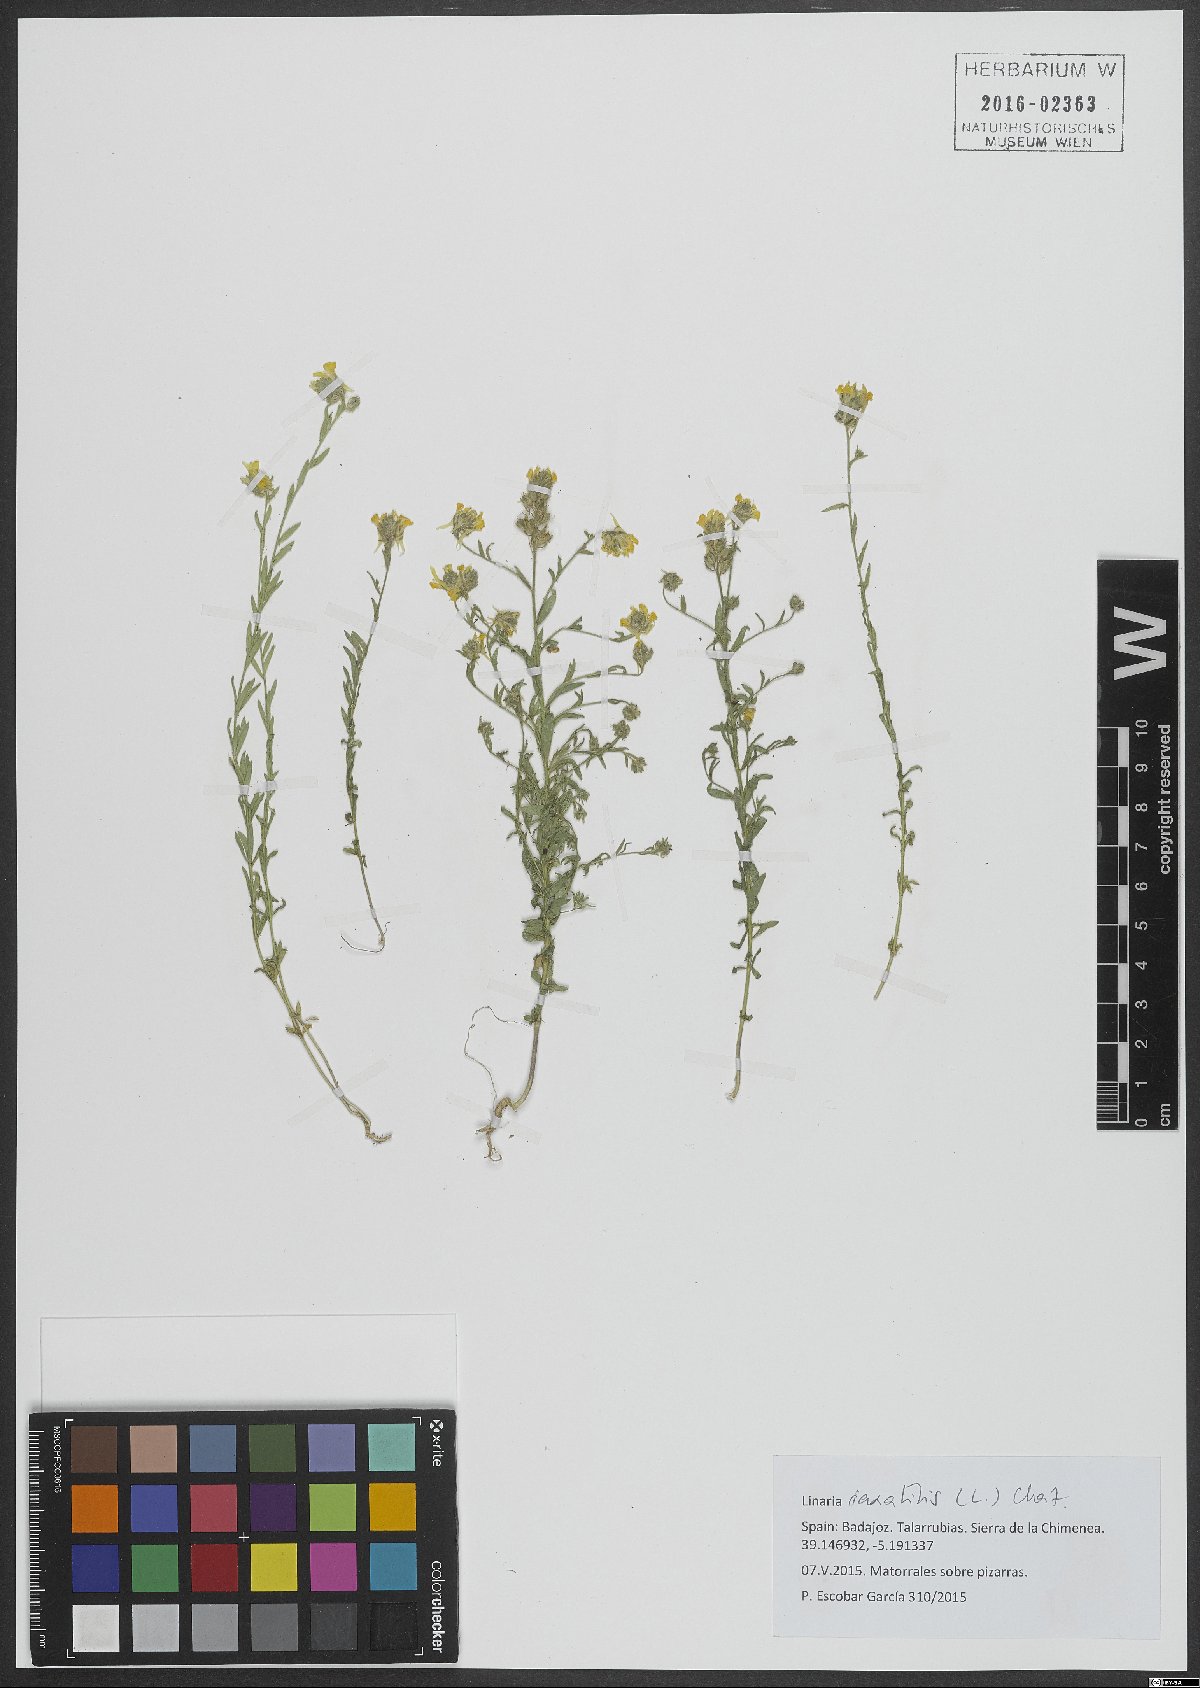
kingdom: Plantae
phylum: Tracheophyta
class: Magnoliopsida
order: Lamiales
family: Plantaginaceae
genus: Linaria
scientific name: Linaria saxatilis
